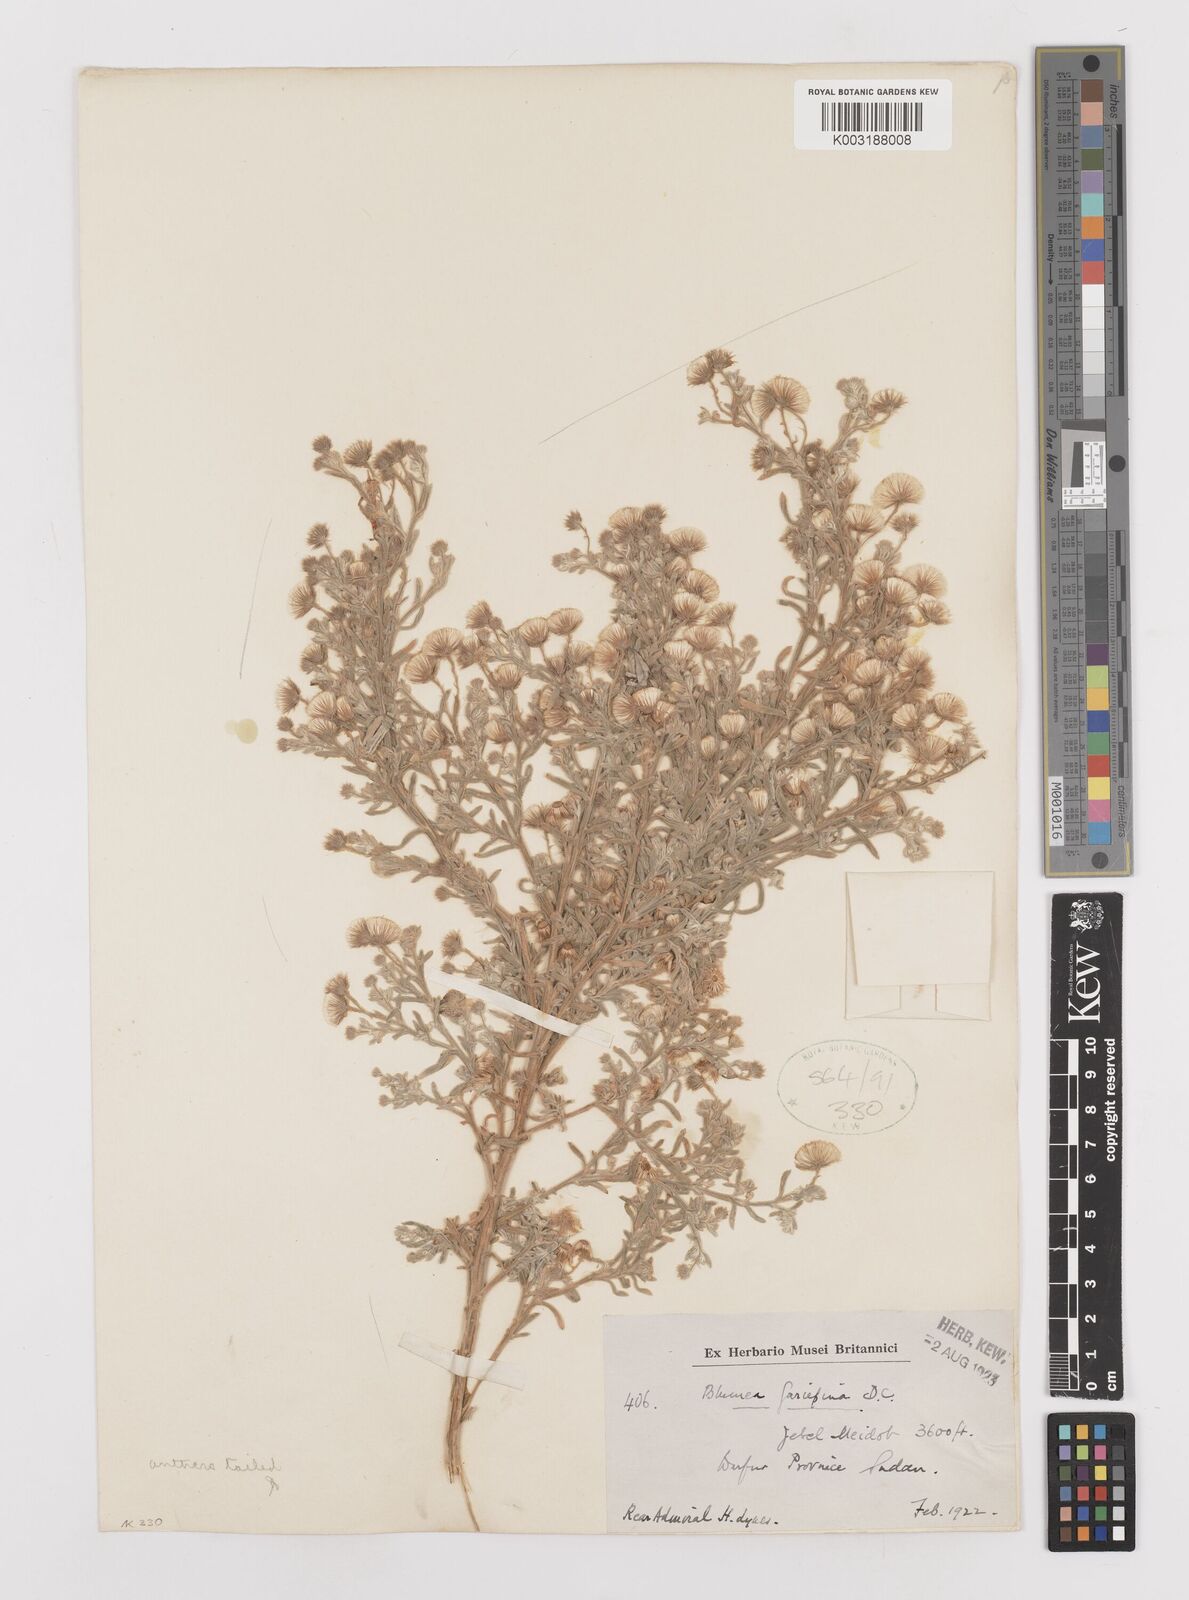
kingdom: Plantae
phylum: Tracheophyta
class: Magnoliopsida
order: Asterales
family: Asteraceae
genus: Laggera
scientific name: Laggera
